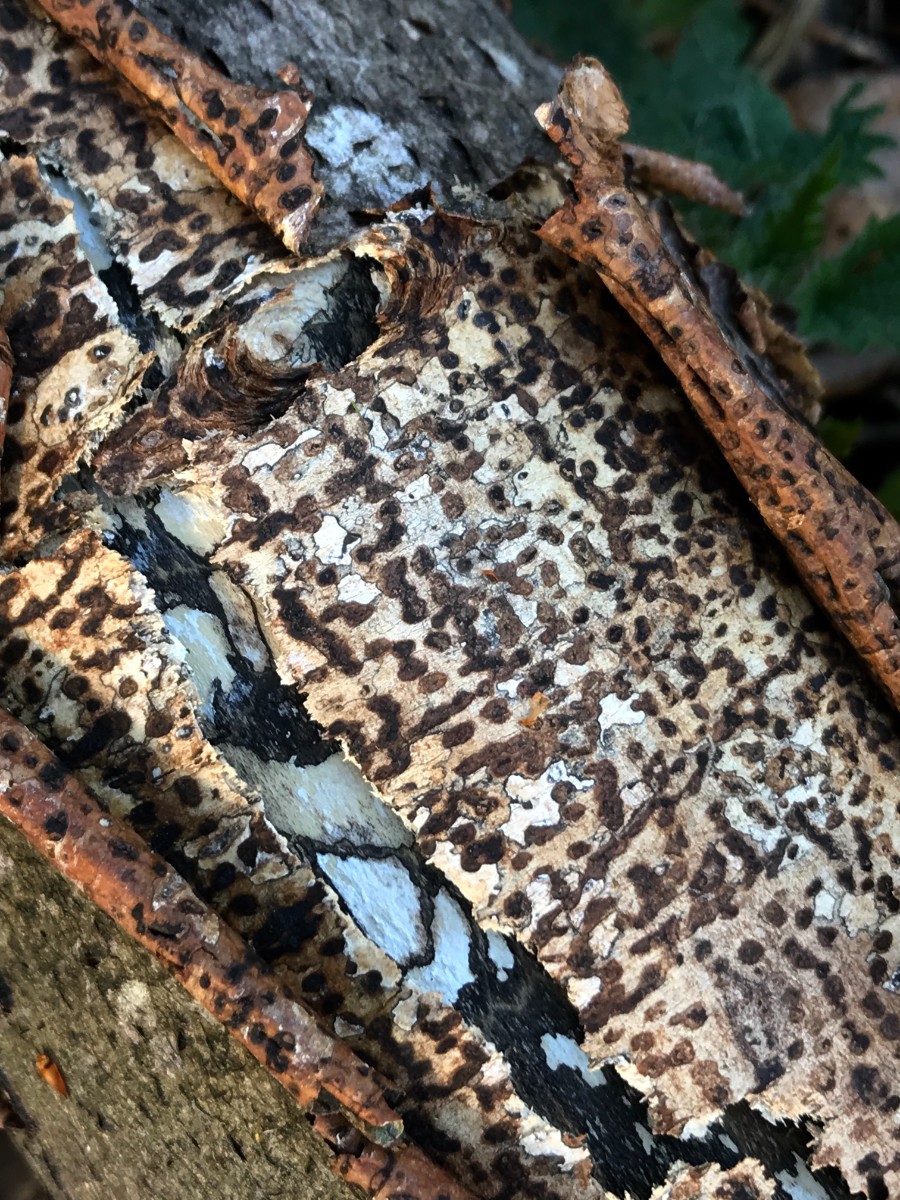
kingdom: Fungi
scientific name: Fungi
